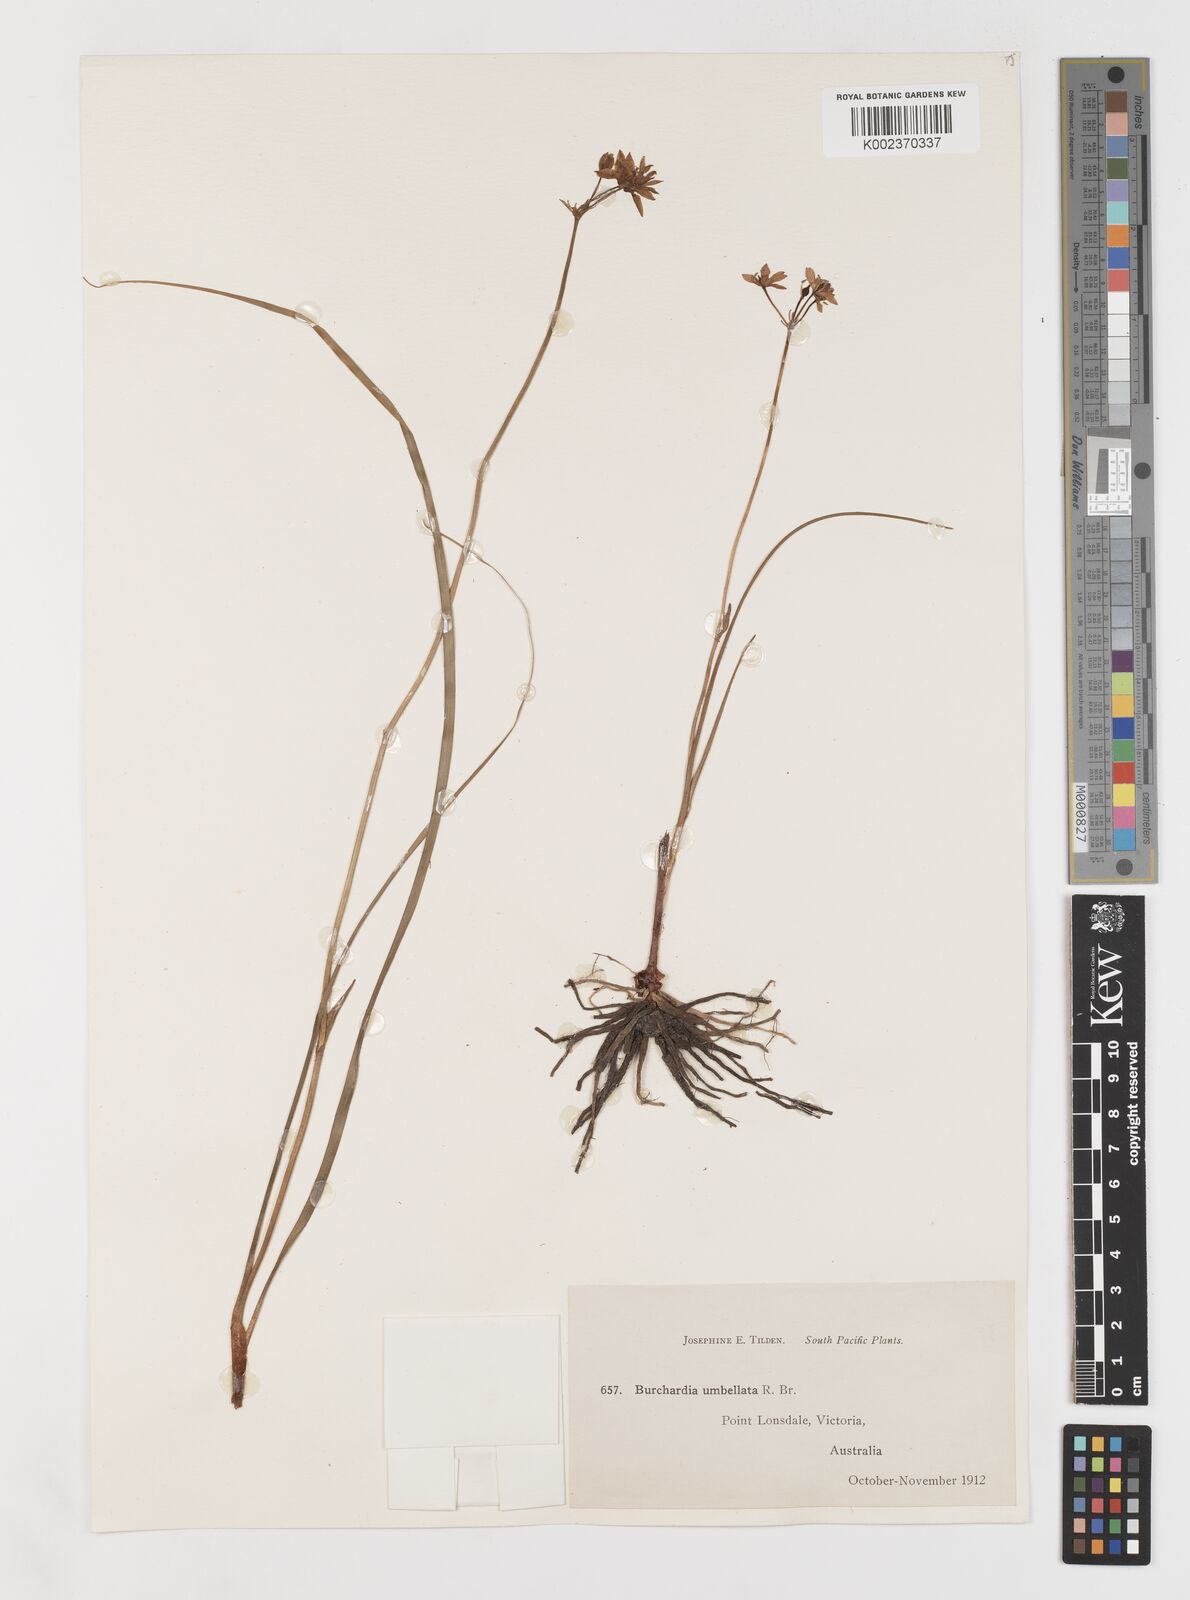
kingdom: Plantae
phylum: Tracheophyta
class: Liliopsida
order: Liliales
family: Colchicaceae
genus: Burchardia
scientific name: Burchardia umbellata
